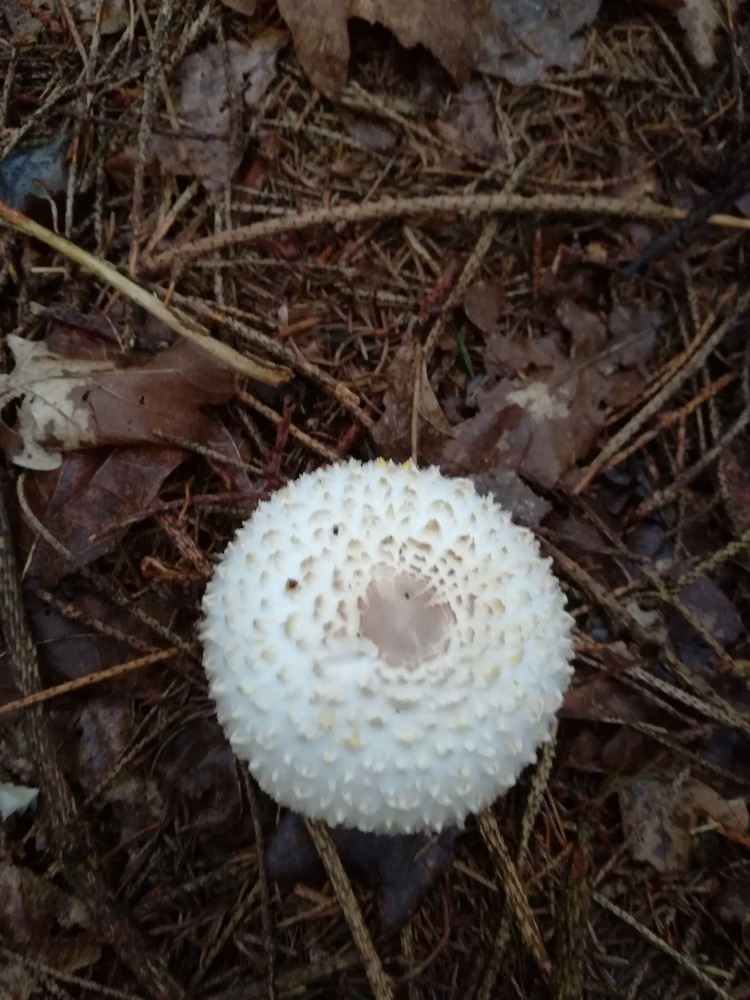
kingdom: Fungi
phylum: Basidiomycota
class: Agaricomycetes
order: Agaricales
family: Agaricaceae
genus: Leucoagaricus
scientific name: Leucoagaricus nympharum
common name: gran-silkehat
